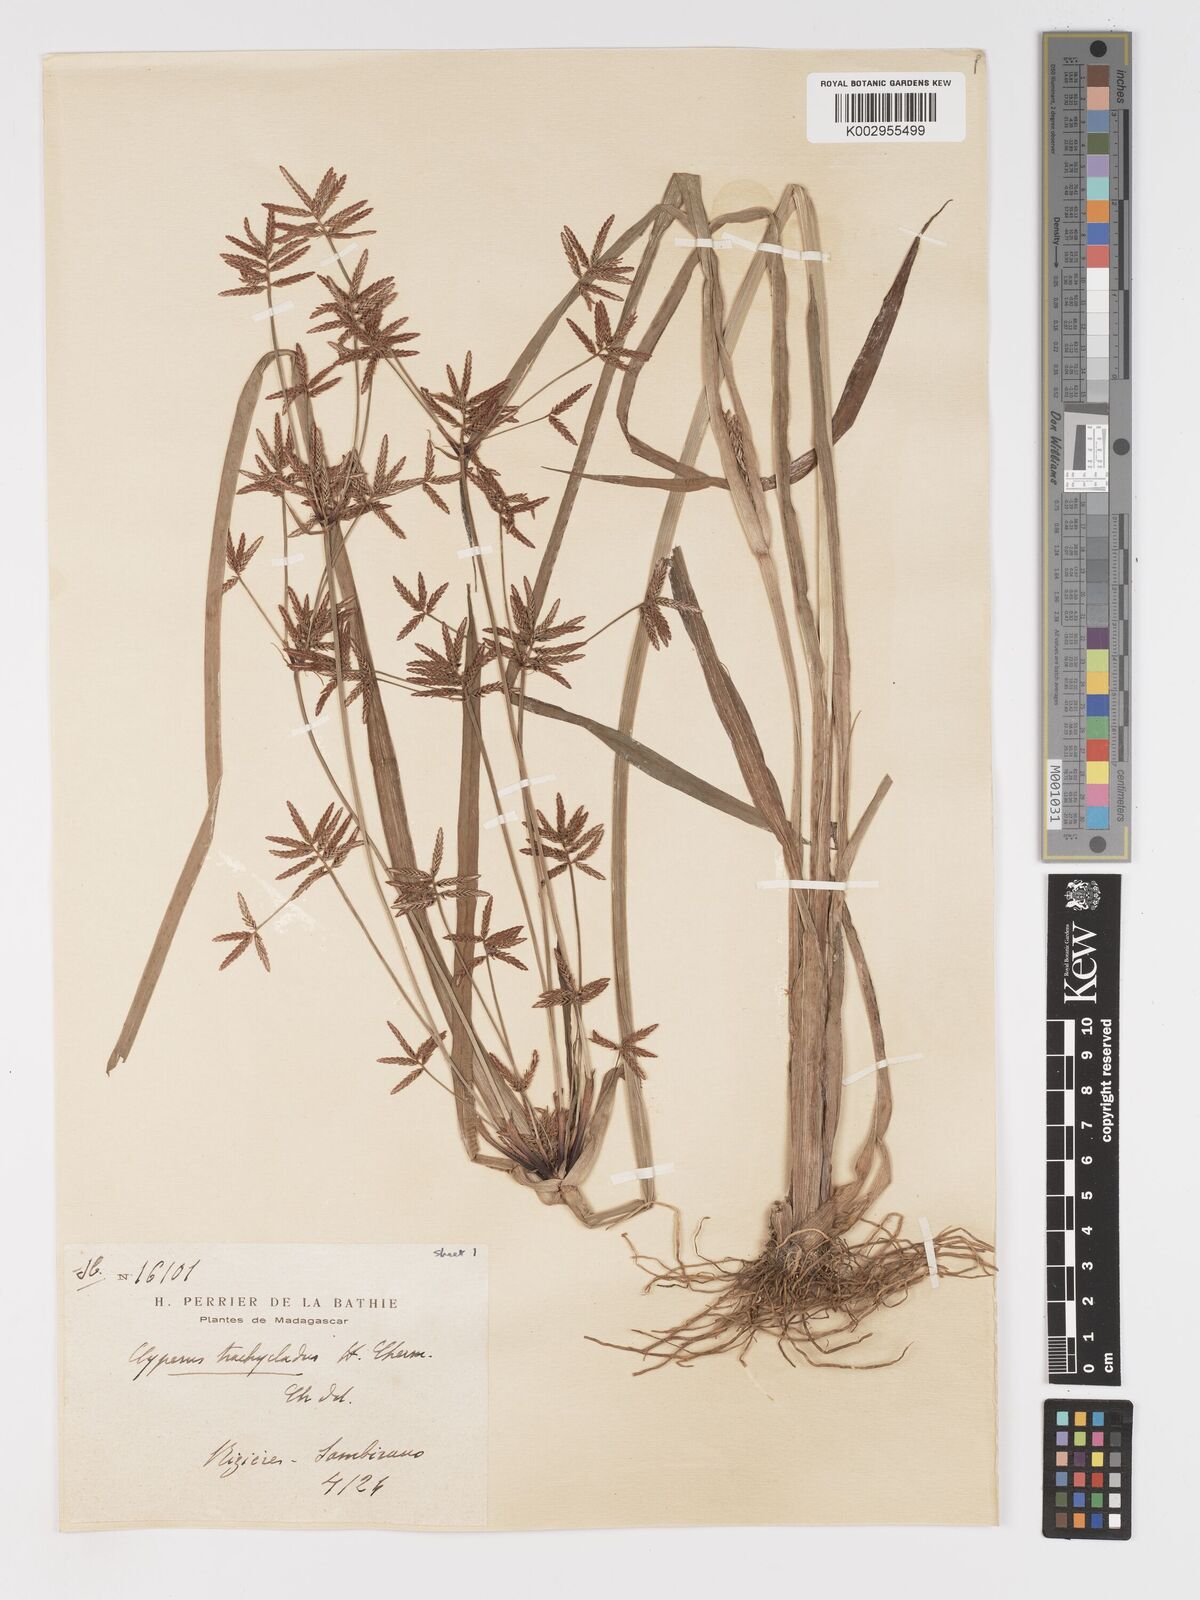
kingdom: Plantae
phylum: Tracheophyta
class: Liliopsida
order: Poales
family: Cyperaceae
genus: Cyperus
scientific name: Cyperus incompressus
